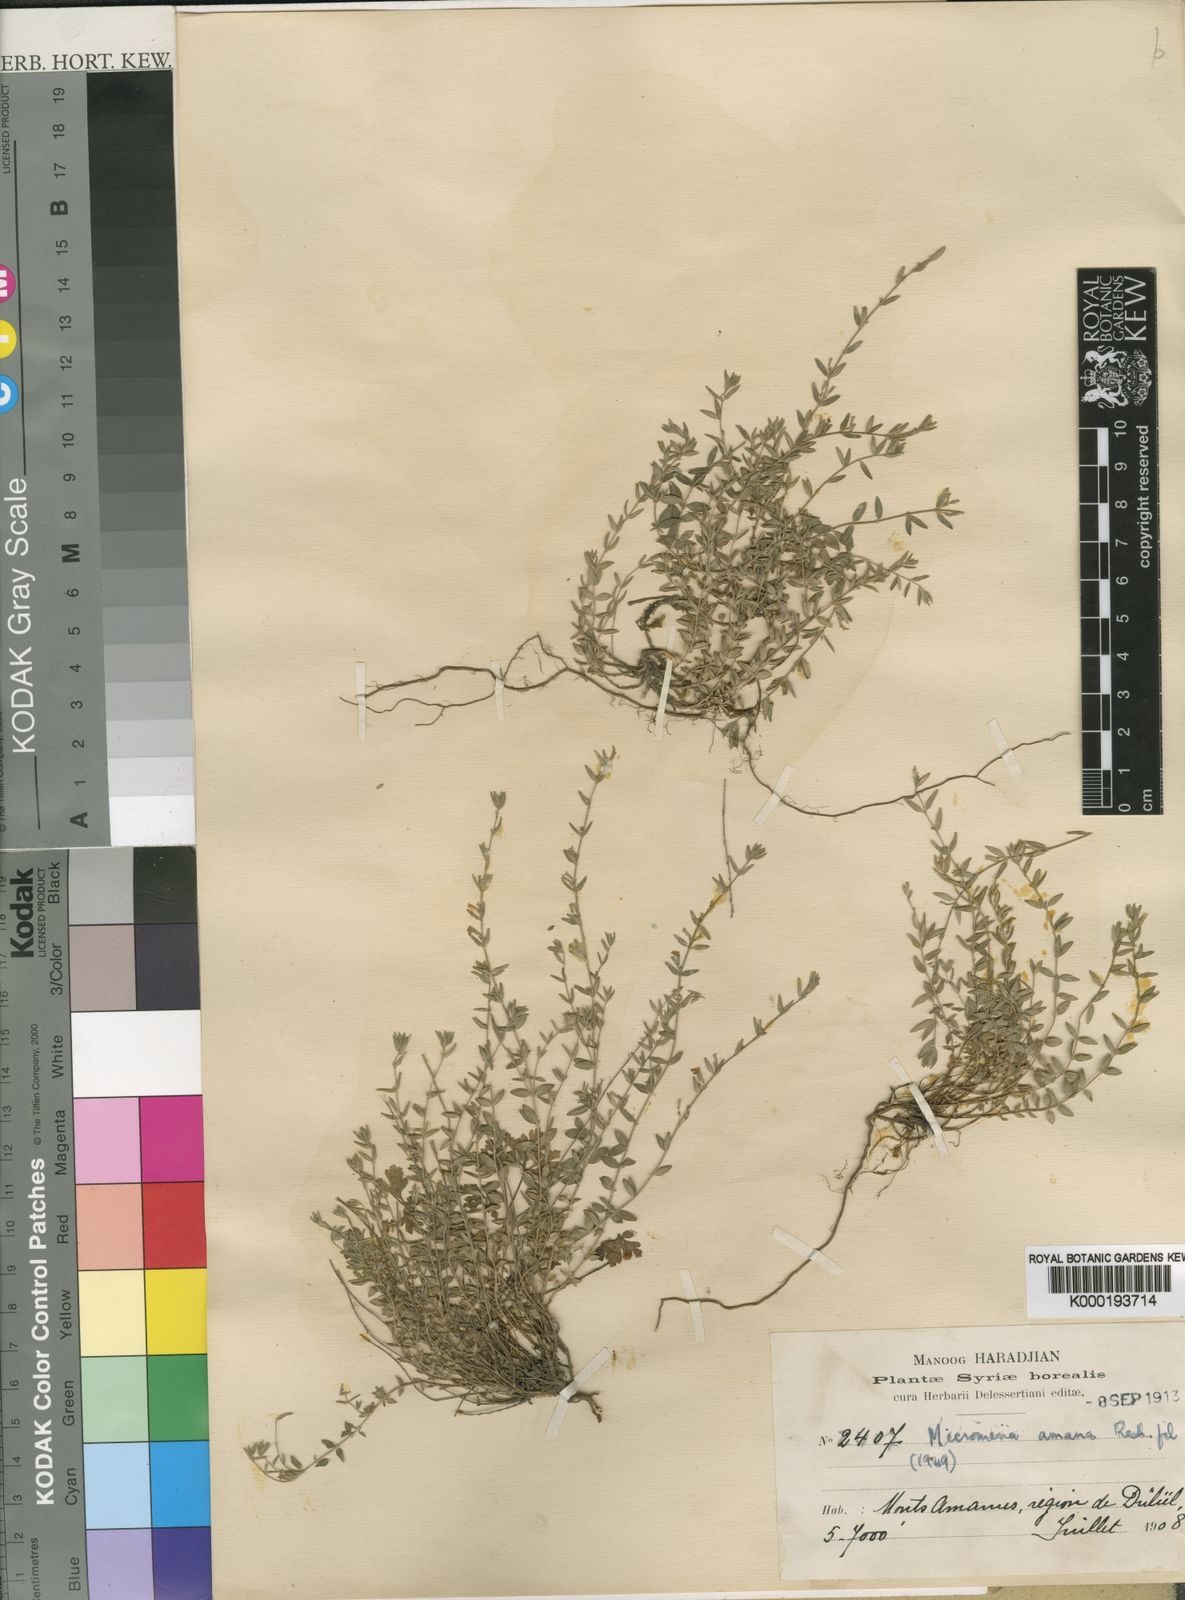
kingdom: Plantae
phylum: Tracheophyta
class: Magnoliopsida
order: Lamiales
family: Lamiaceae
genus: Micromeria
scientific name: Micromeria cremnophila
